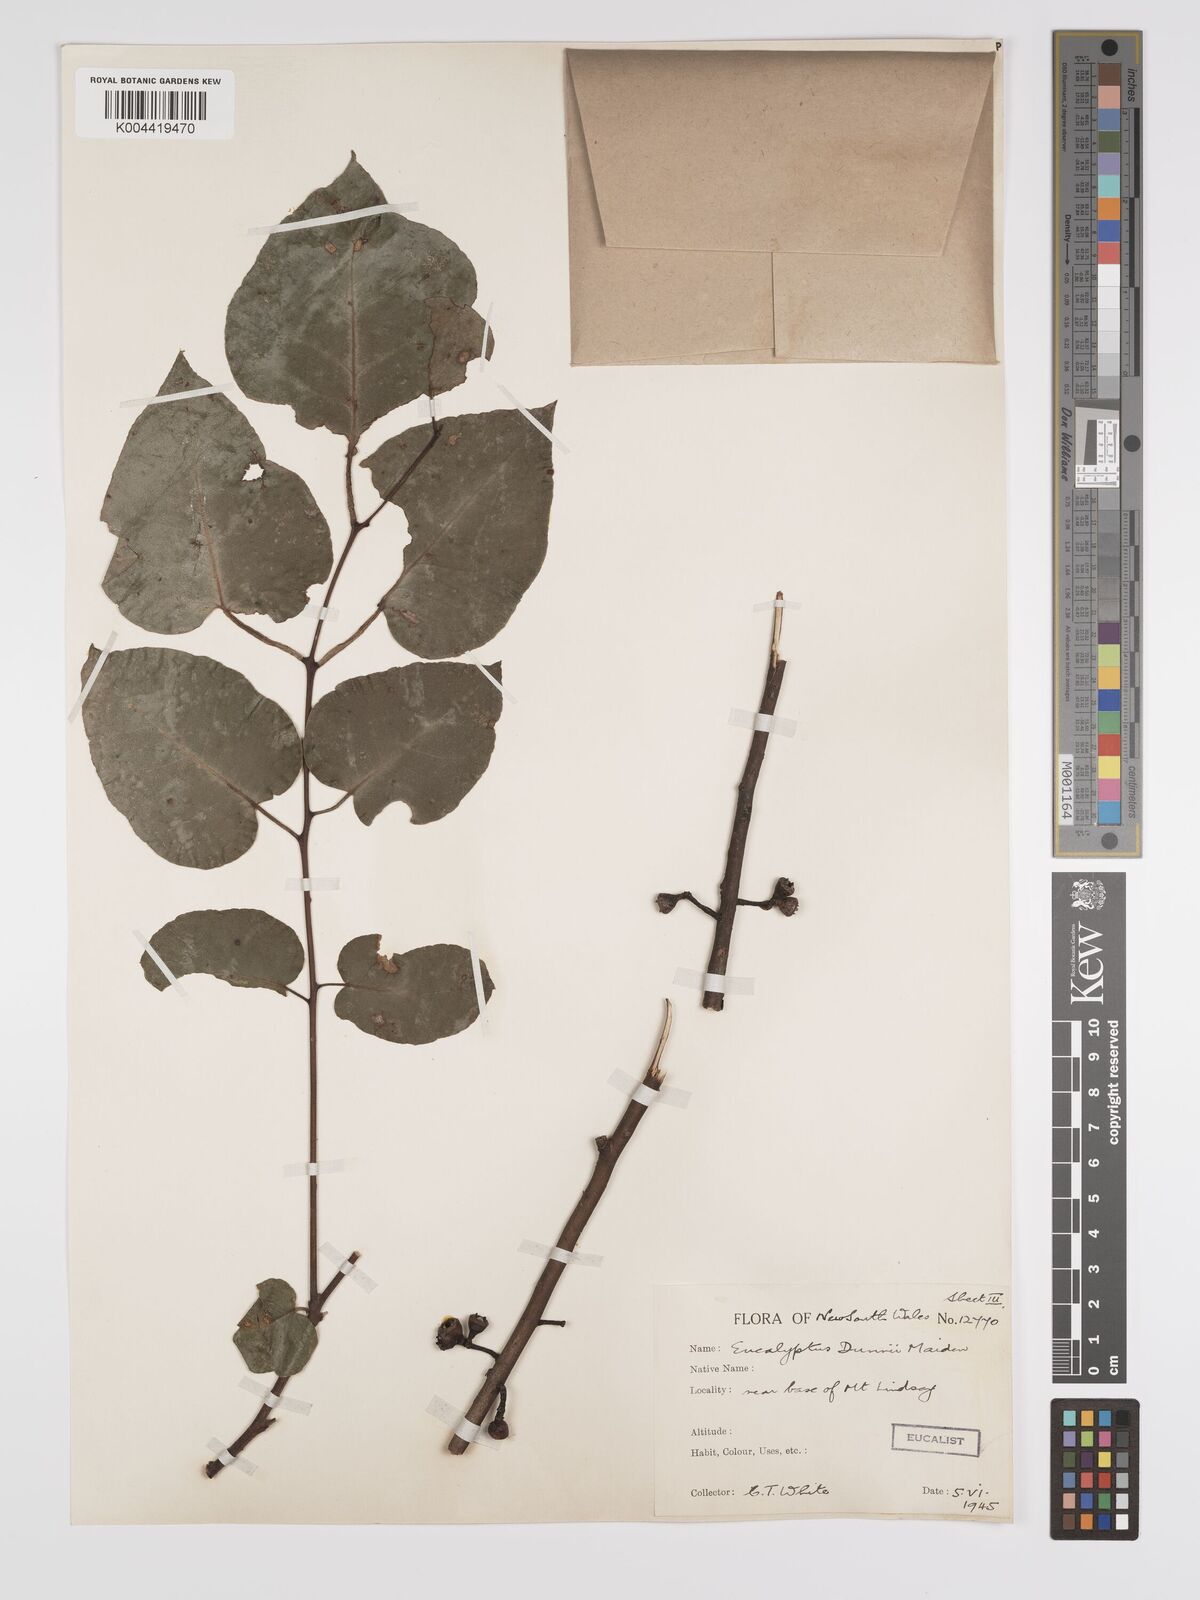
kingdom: Plantae
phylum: Tracheophyta
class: Magnoliopsida
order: Myrtales
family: Myrtaceae
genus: Eucalyptus
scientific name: Eucalyptus dunnii
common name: Dunn's white gum
